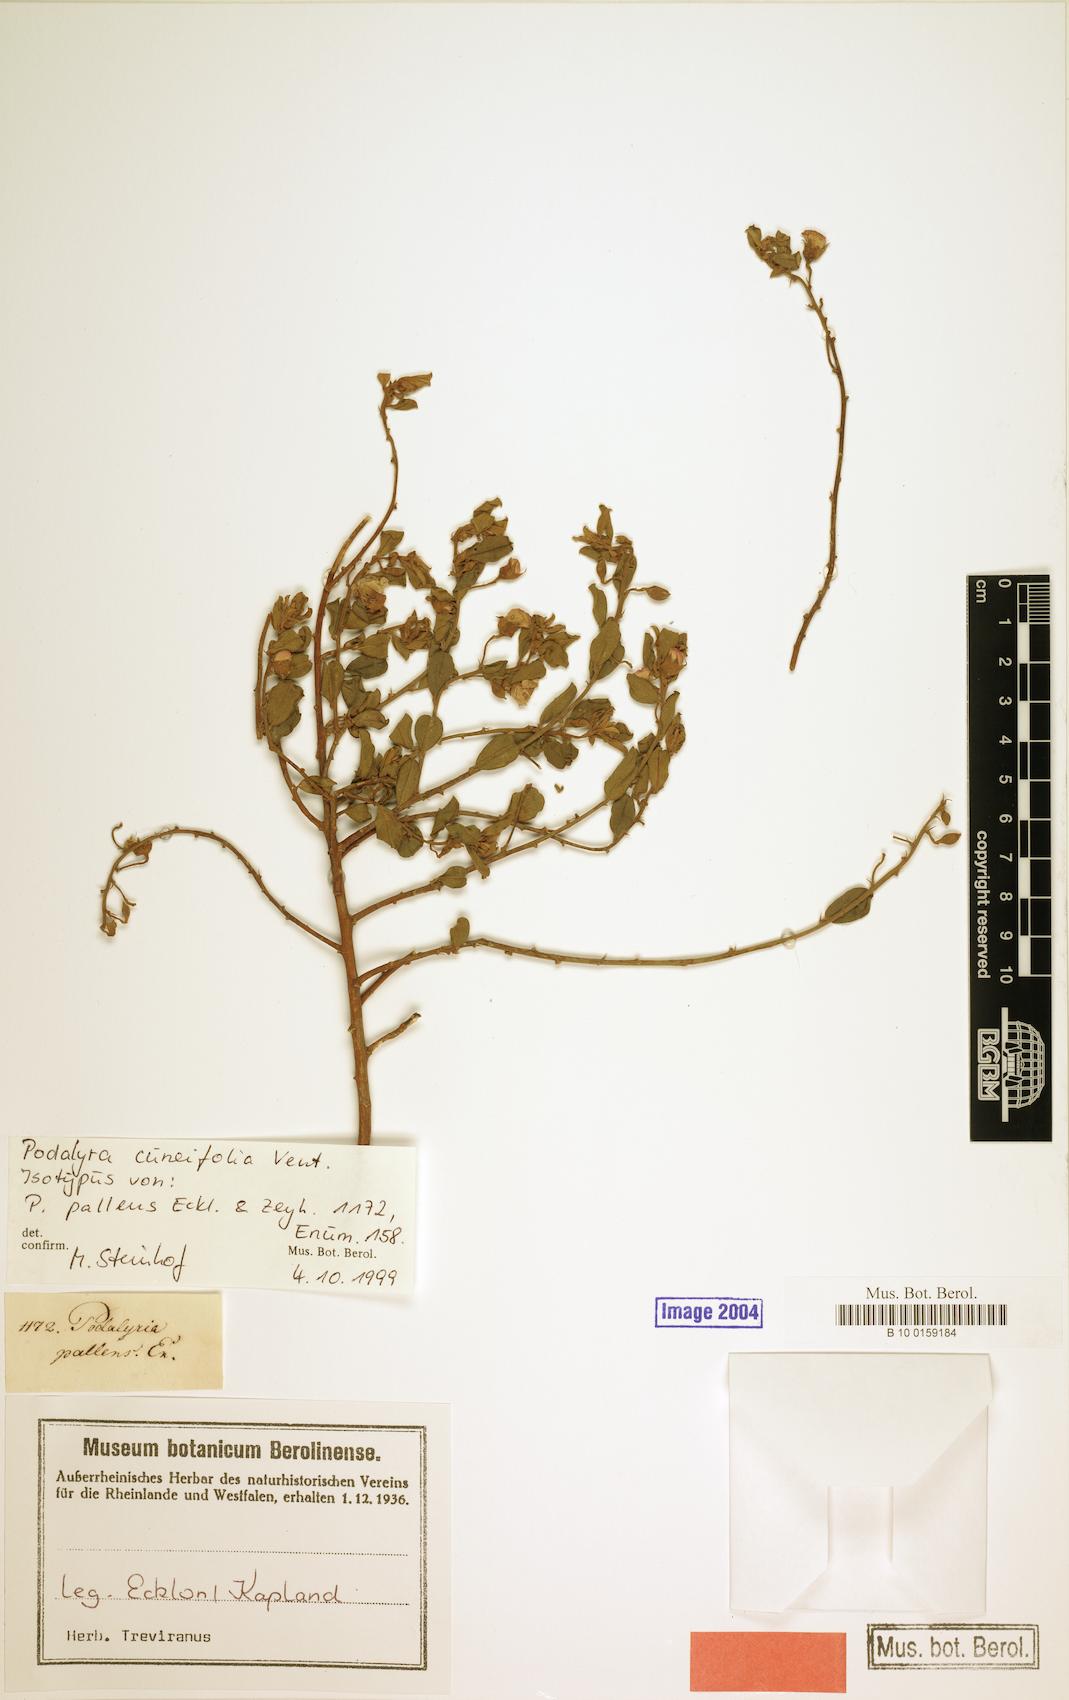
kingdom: Plantae
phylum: Tracheophyta
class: Magnoliopsida
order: Fabales
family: Fabaceae
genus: Podalyria
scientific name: Podalyria myrtillifolia
